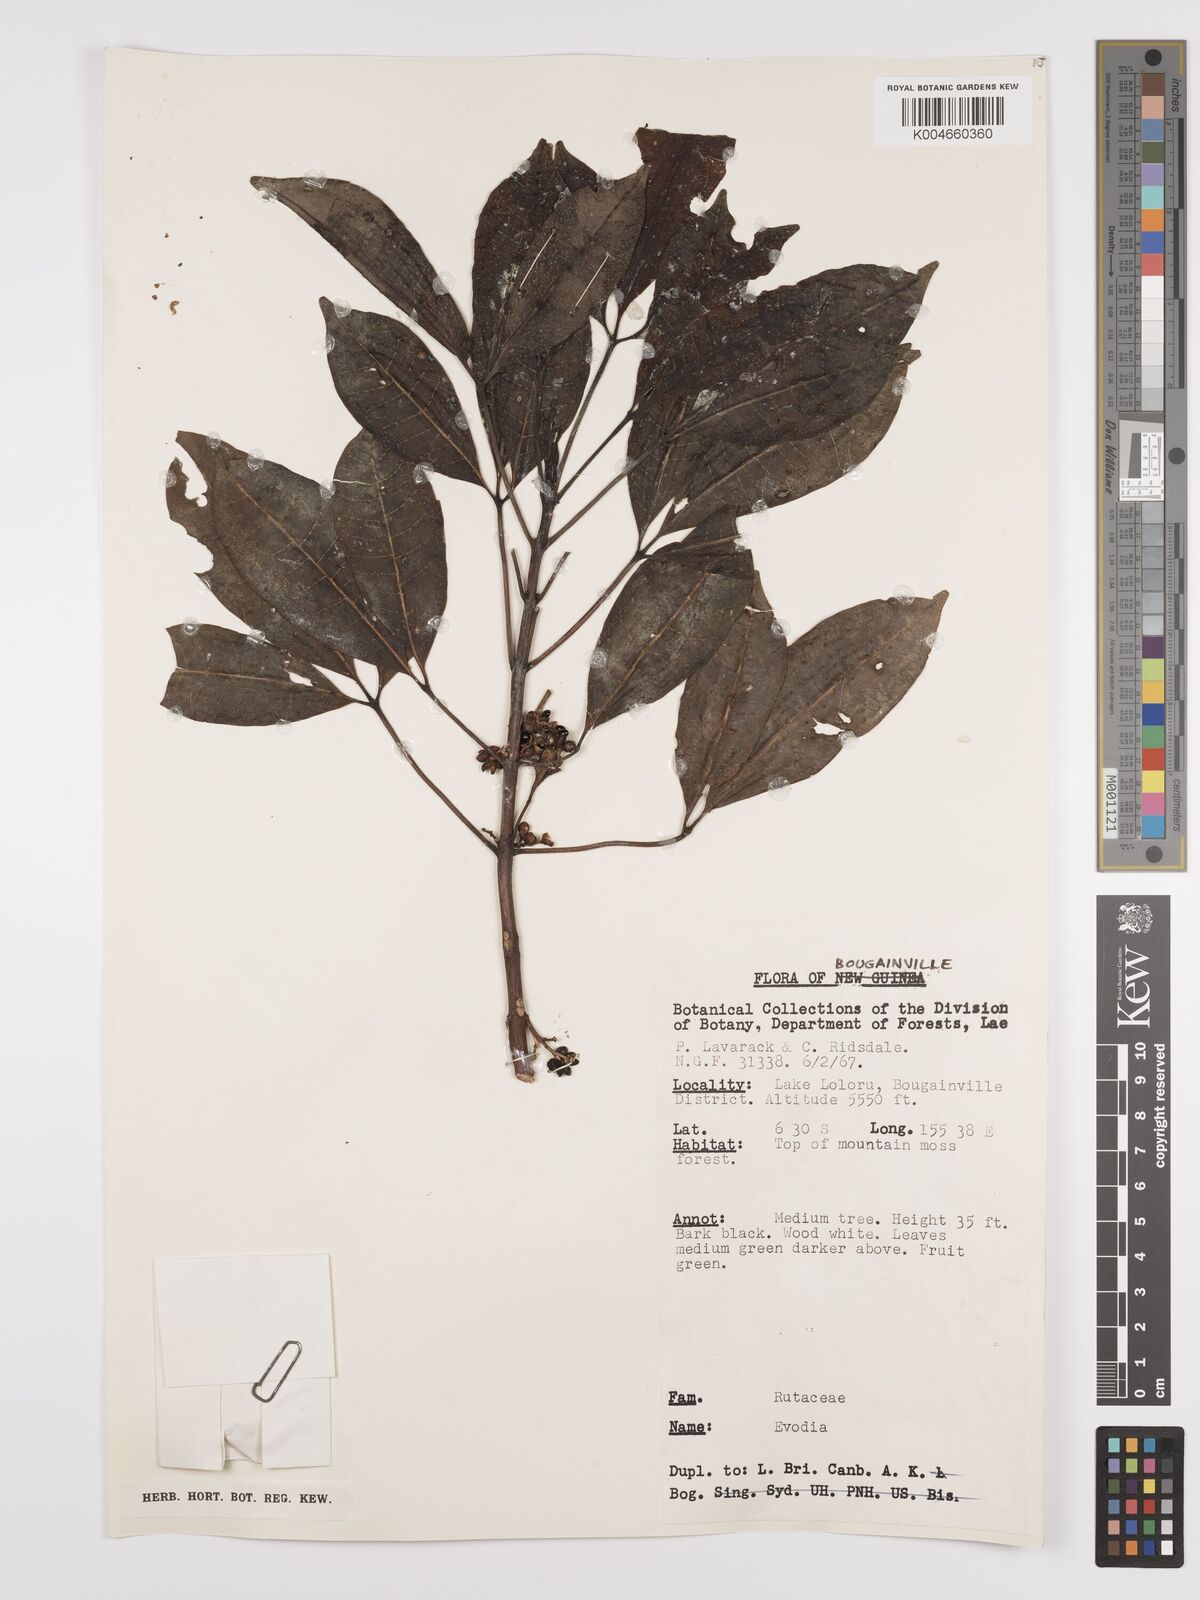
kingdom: Plantae
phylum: Tracheophyta
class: Magnoliopsida
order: Sapindales
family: Rutaceae
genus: Euodia
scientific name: Euodia
